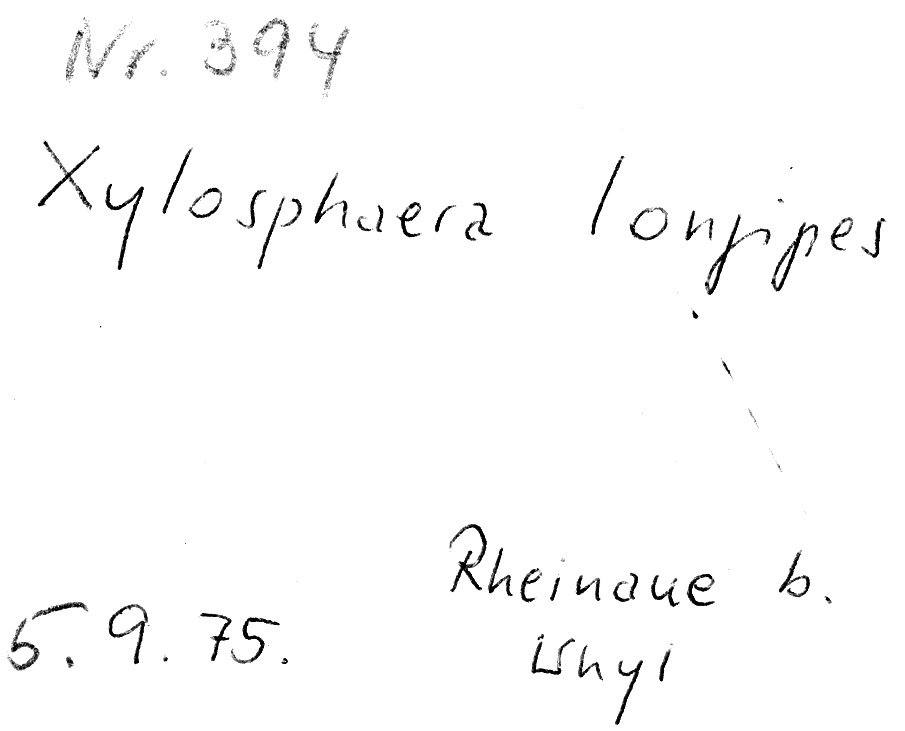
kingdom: Fungi
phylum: Ascomycota
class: Sordariomycetes
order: Xylariales
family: Xylariaceae
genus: Xylaria
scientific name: Xylaria longipes
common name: Dead moll's fingers
